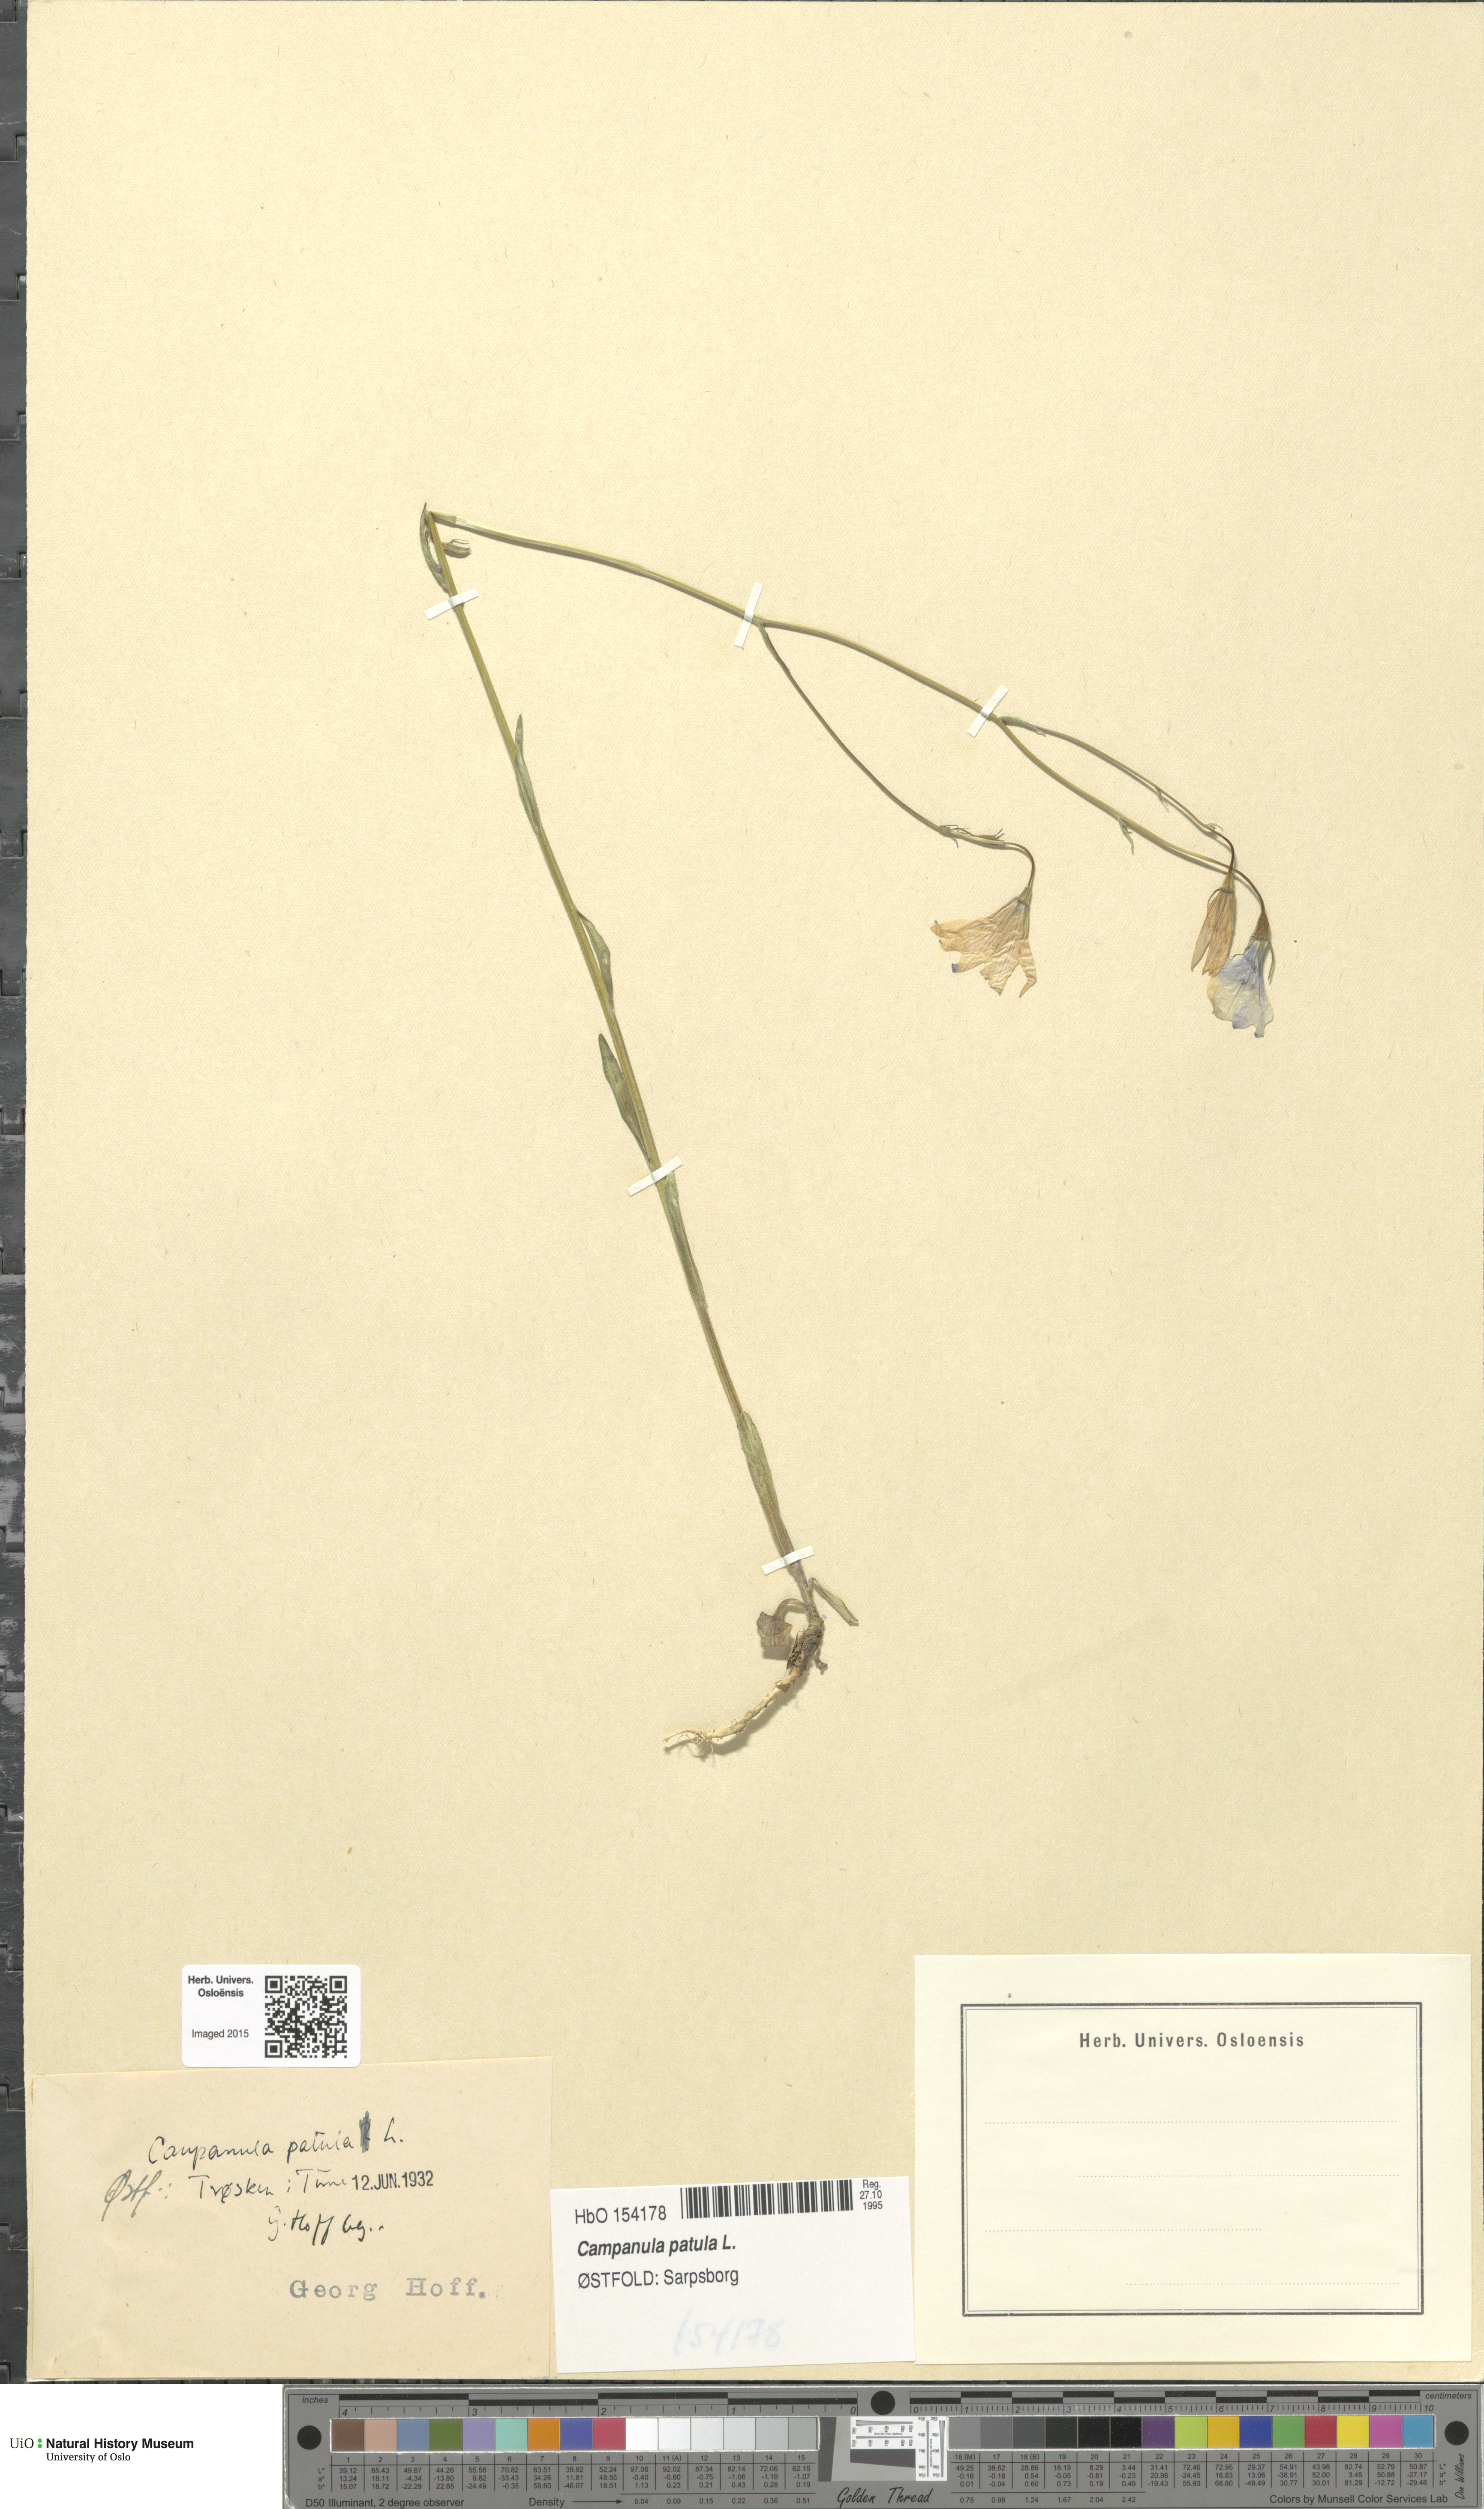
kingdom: Plantae
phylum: Tracheophyta
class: Magnoliopsida
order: Asterales
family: Campanulaceae
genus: Campanula
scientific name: Campanula patula
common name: Spreading bellflower
